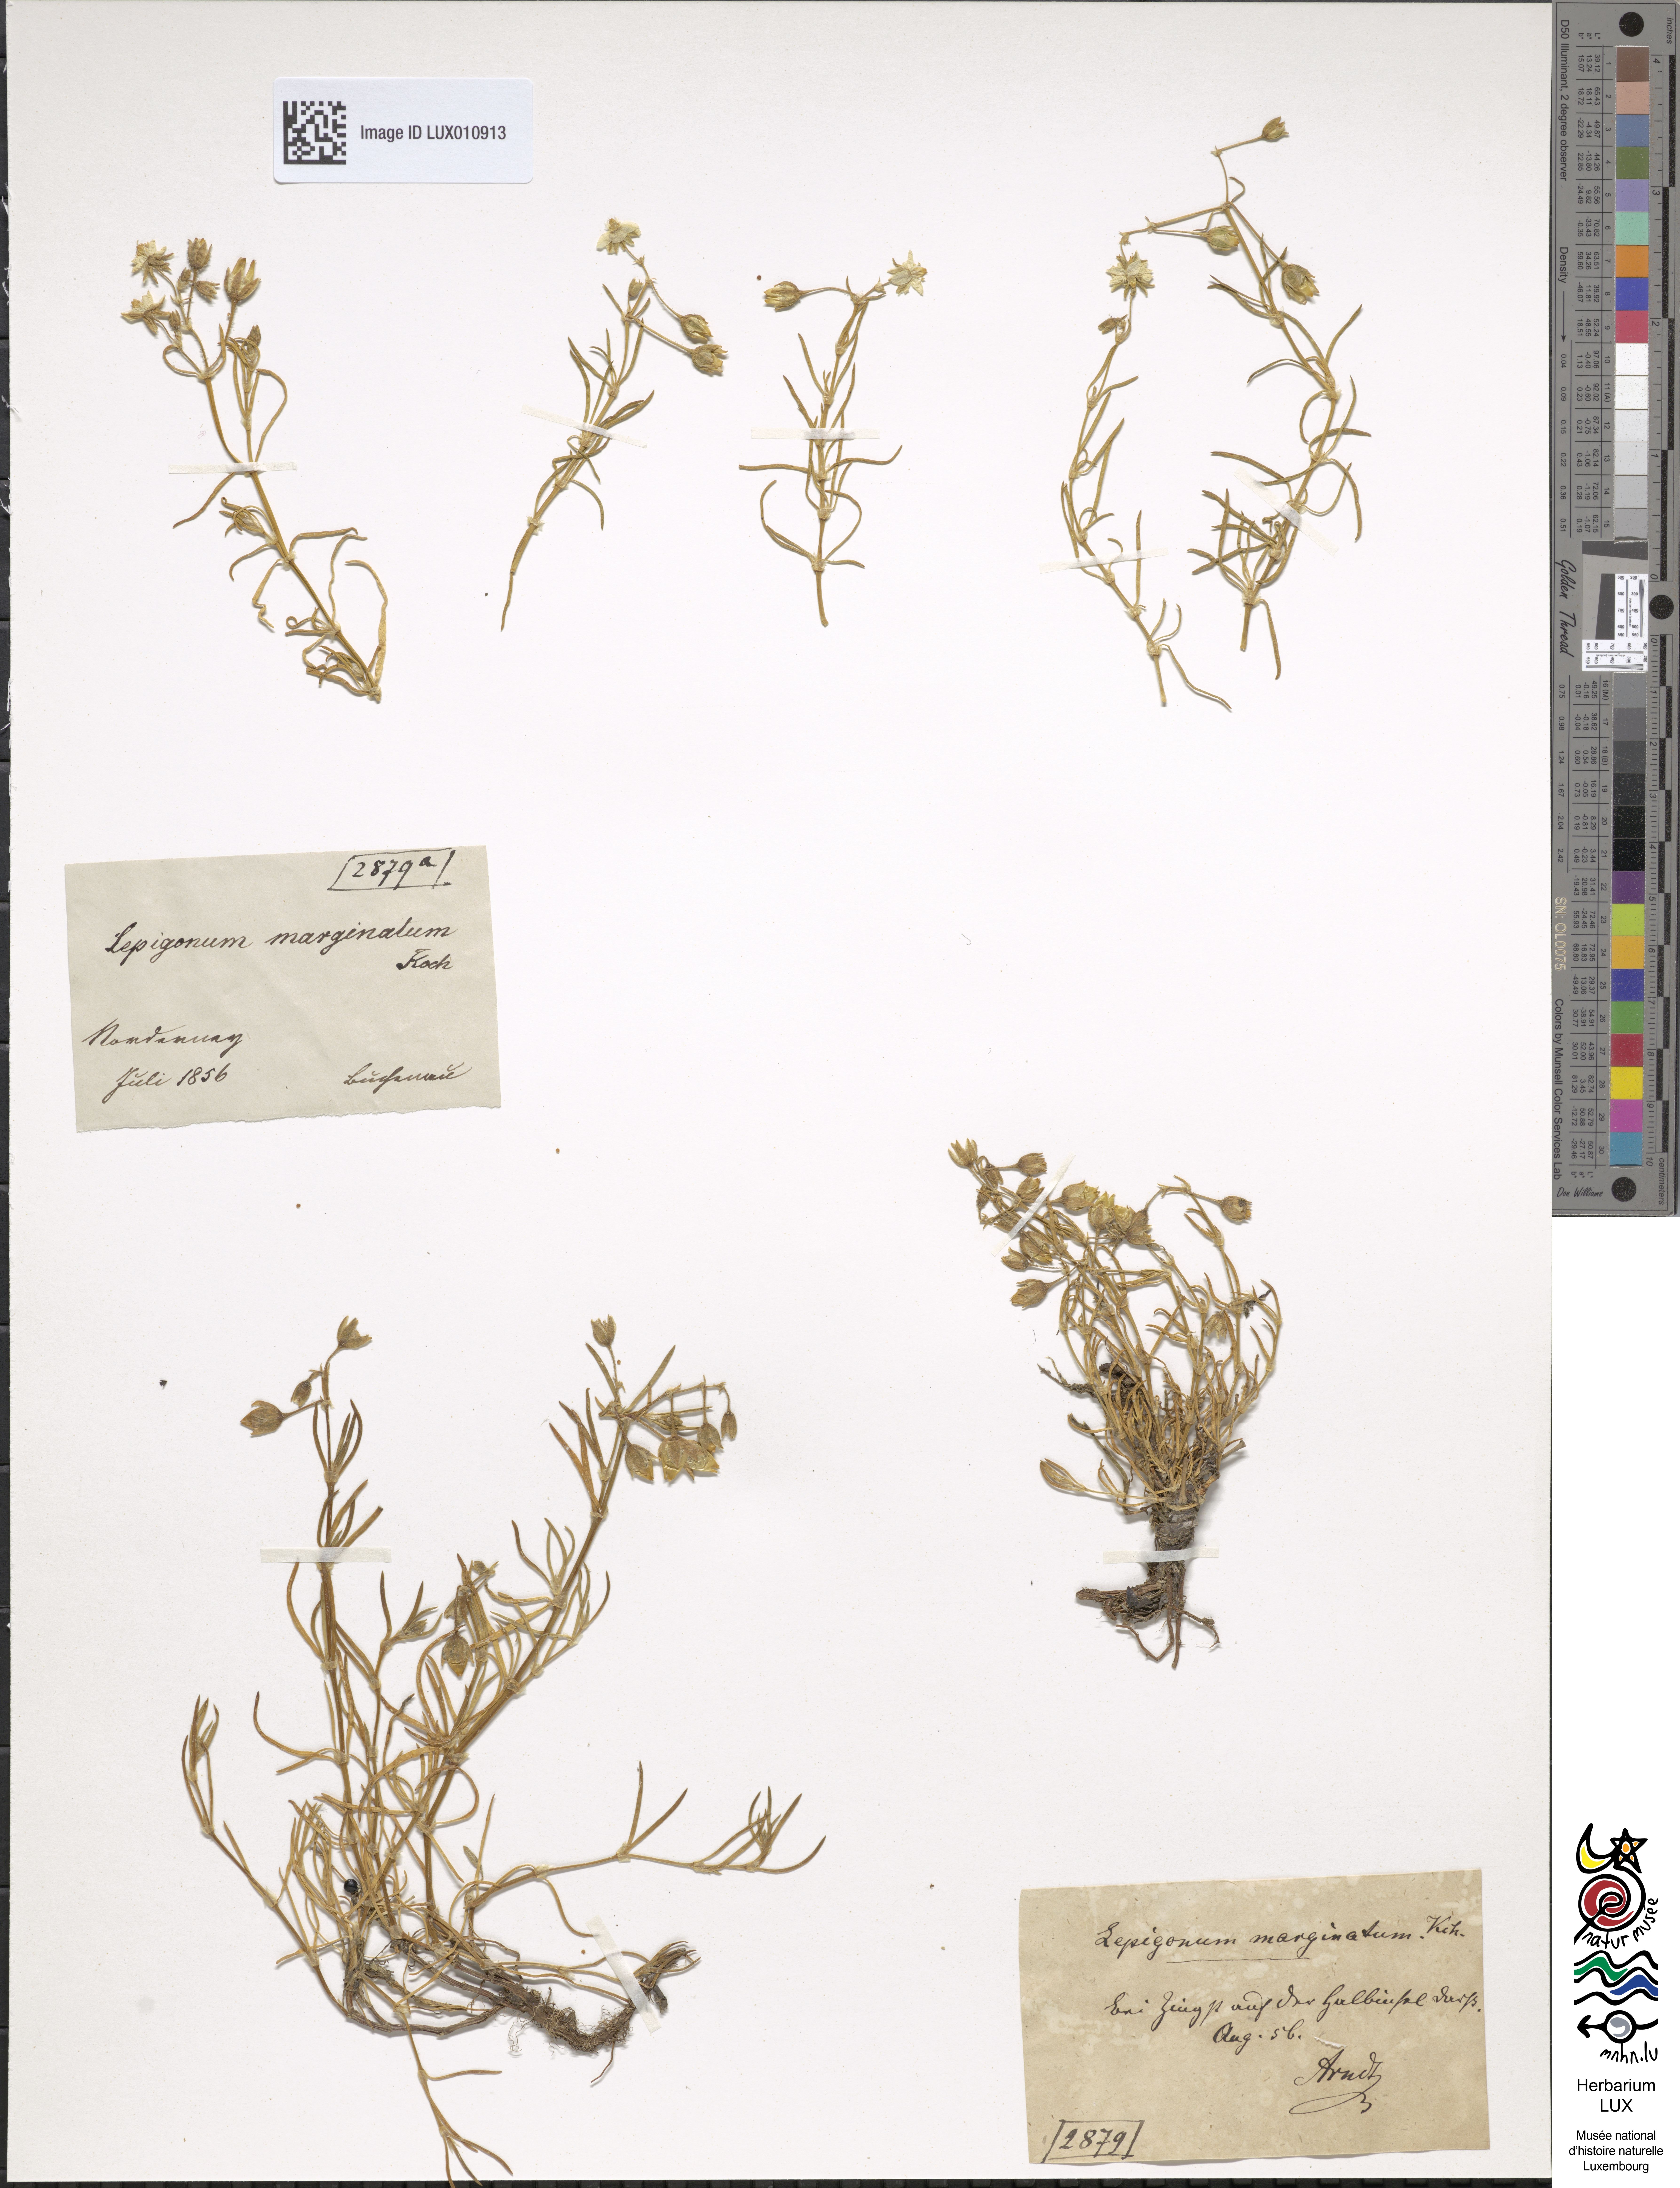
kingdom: Plantae
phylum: Tracheophyta
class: Magnoliopsida
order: Caryophyllales
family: Caryophyllaceae
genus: Spergularia
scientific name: Spergularia media
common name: Greater sea-spurrey
